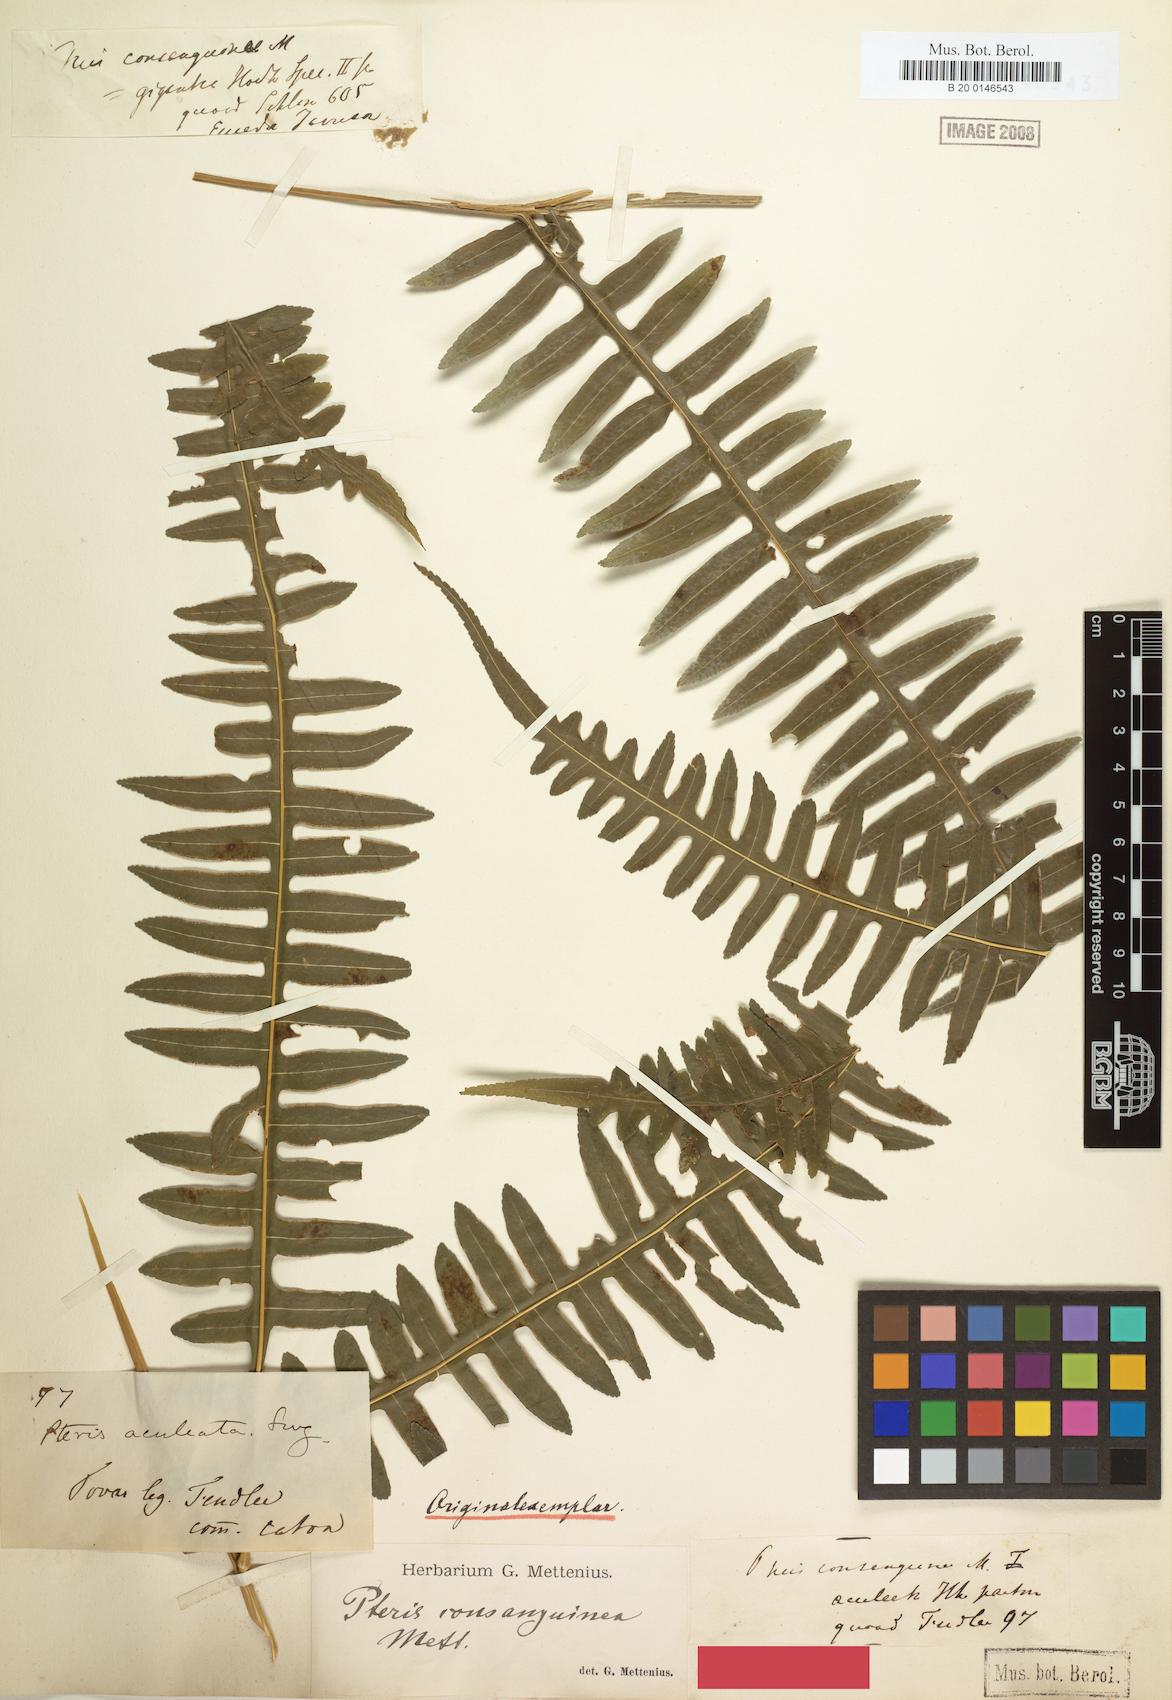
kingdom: Plantae
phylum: Tracheophyta
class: Polypodiopsida
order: Polypodiales
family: Pteridaceae
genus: Pteris
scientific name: Pteris consanguinea
